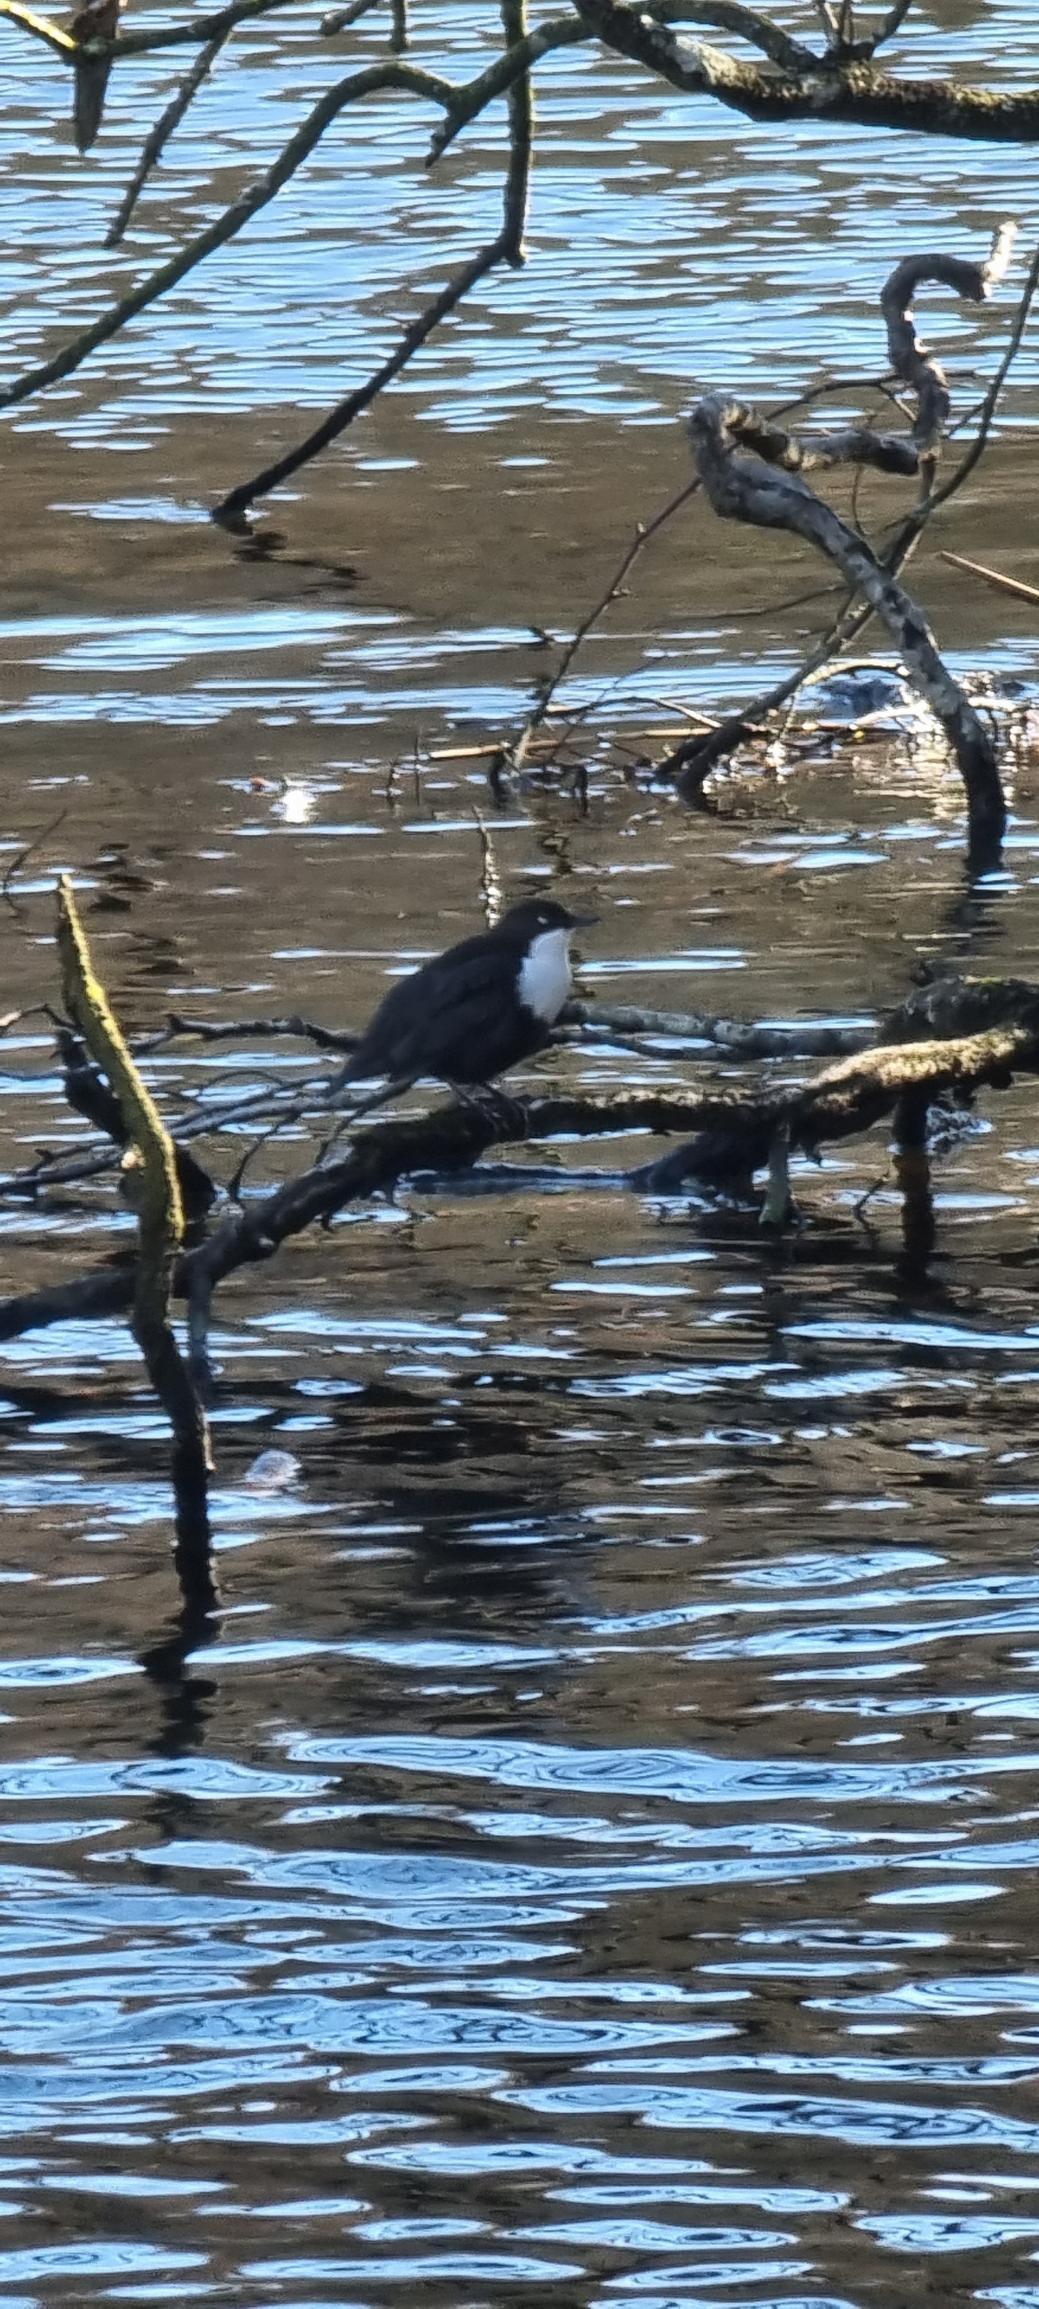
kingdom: Animalia
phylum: Chordata
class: Aves
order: Passeriformes
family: Cinclidae
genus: Cinclus
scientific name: Cinclus cinclus
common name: Vandstær
